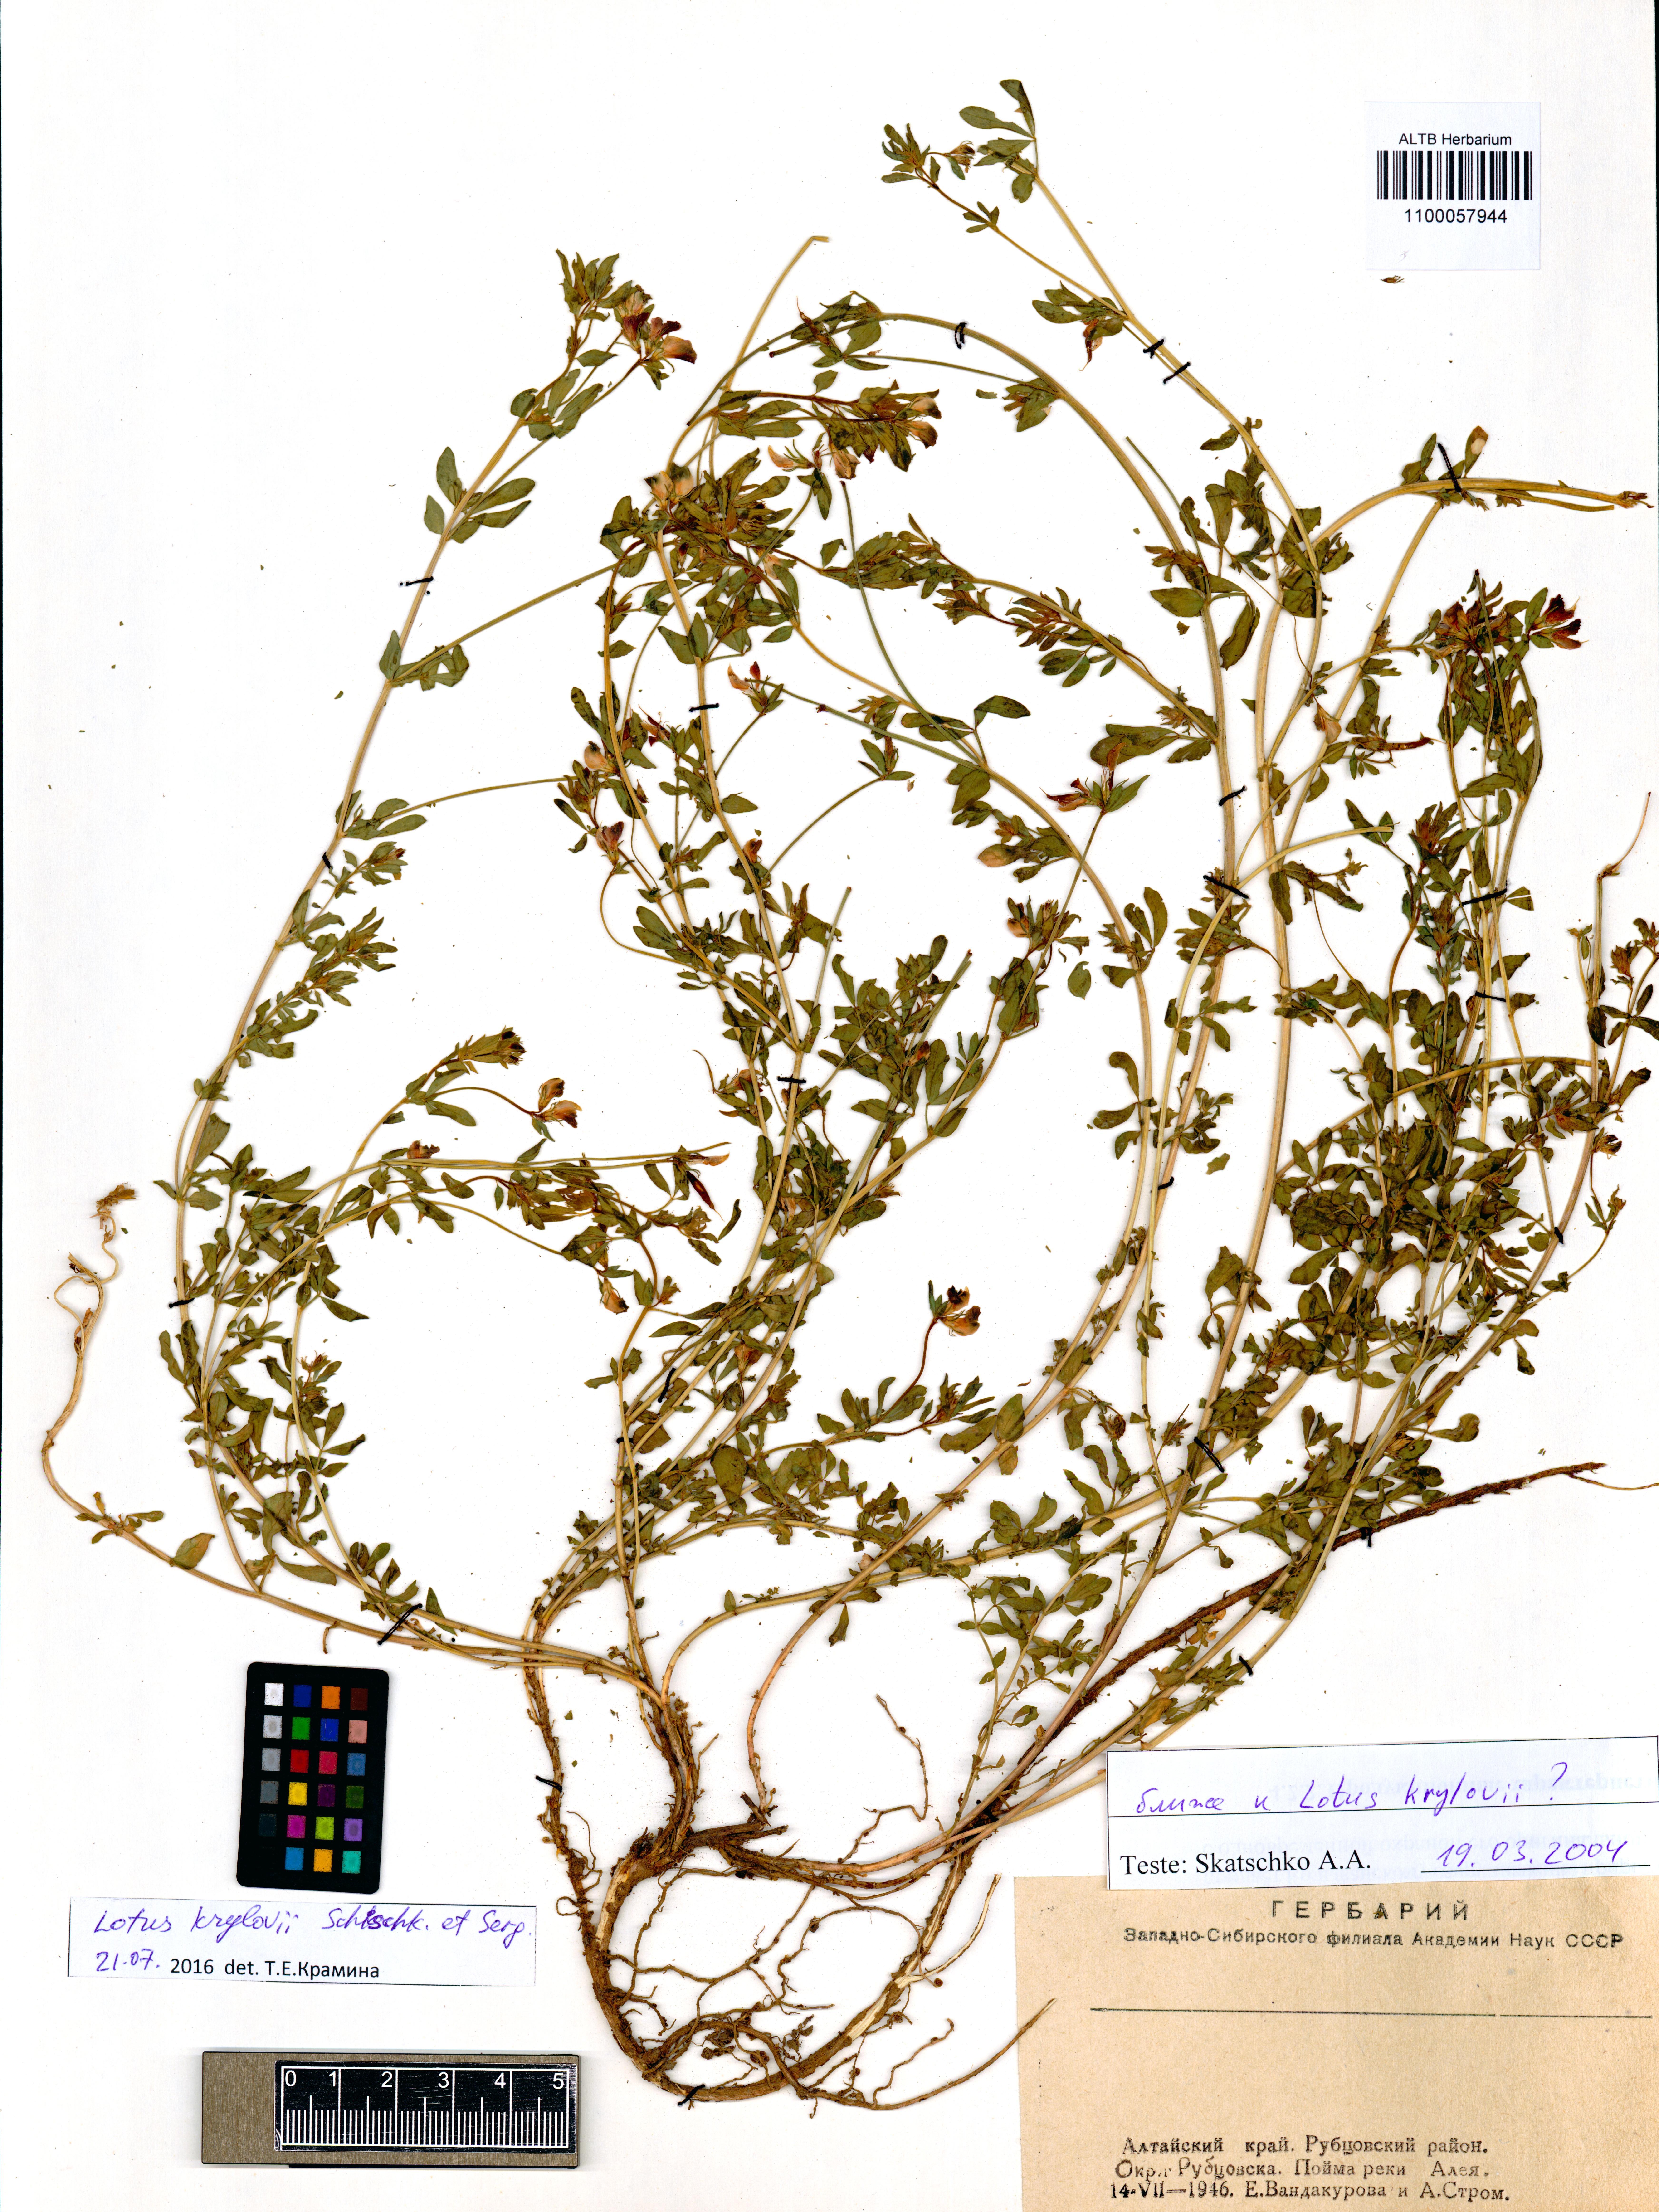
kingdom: Plantae
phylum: Tracheophyta
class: Magnoliopsida
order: Fabales
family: Fabaceae
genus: Lotus
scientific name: Lotus krylovii
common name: Krylov's bird's-foot trefoil
